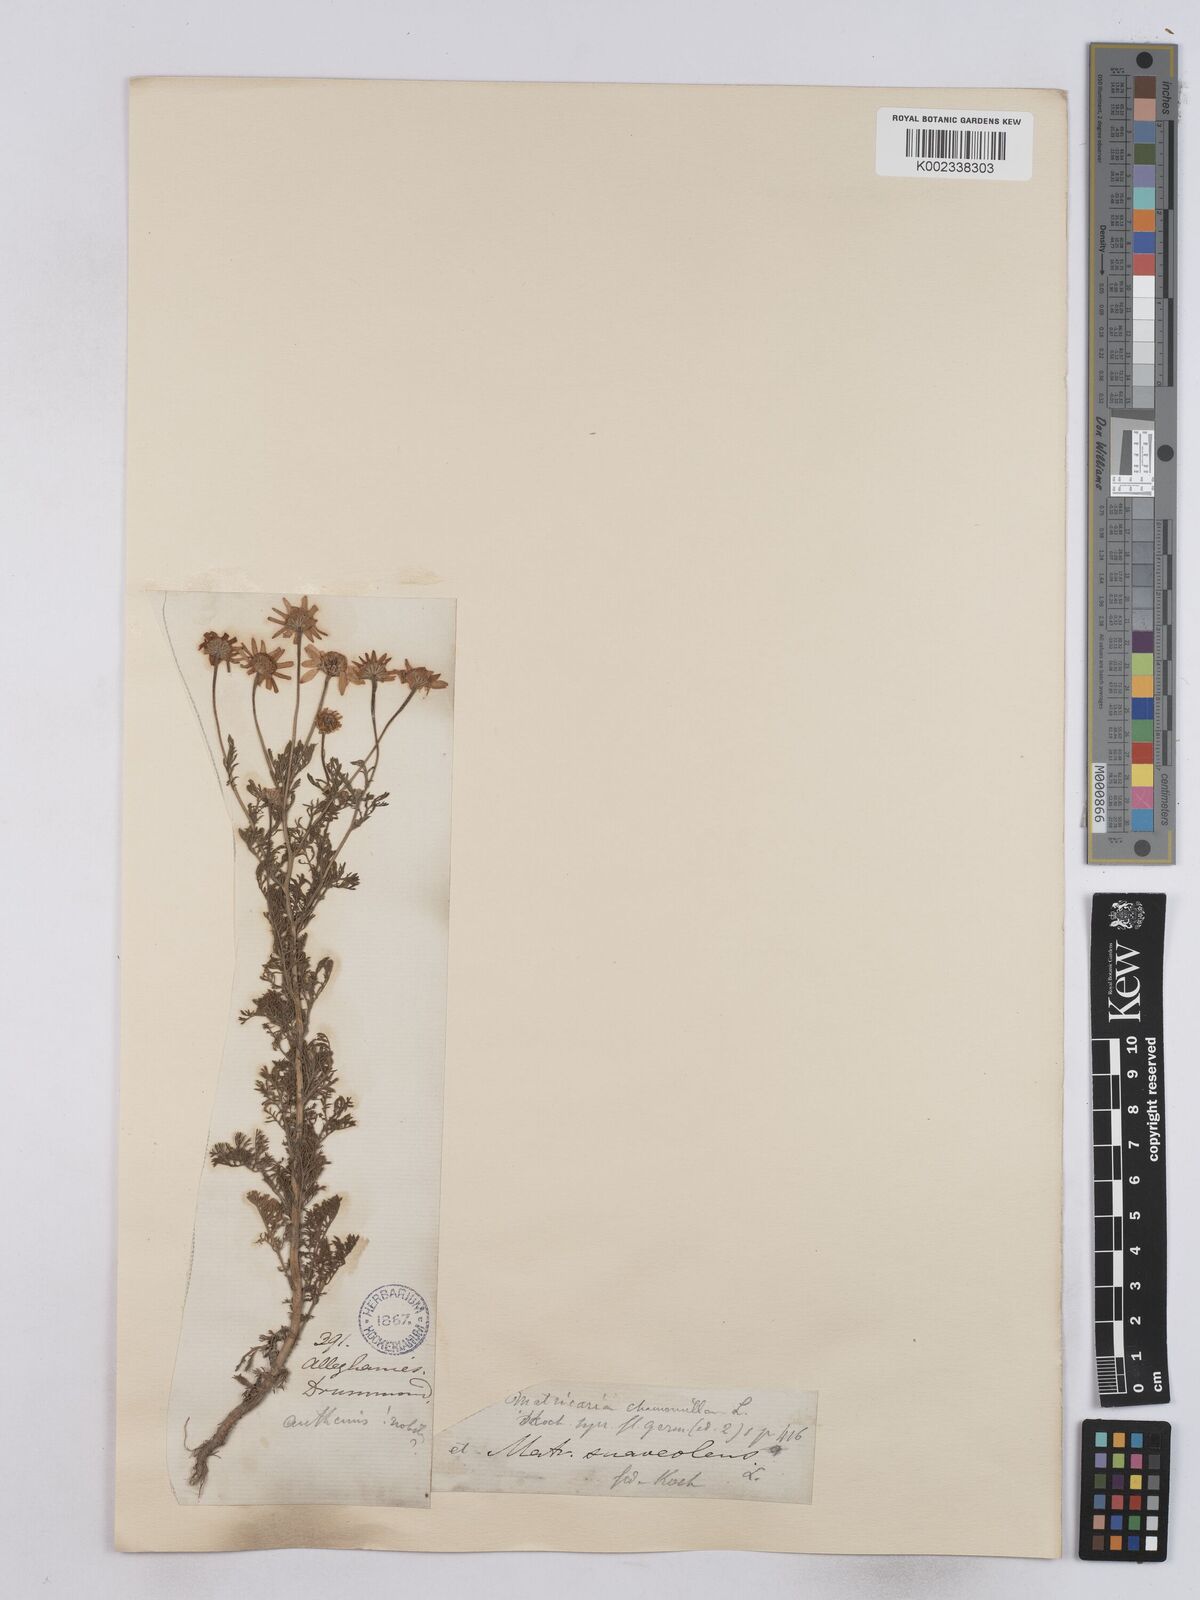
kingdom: Plantae
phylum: Tracheophyta
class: Magnoliopsida
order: Asterales
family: Asteraceae
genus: Matricaria
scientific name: Matricaria chamomilla
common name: Scented mayweed
